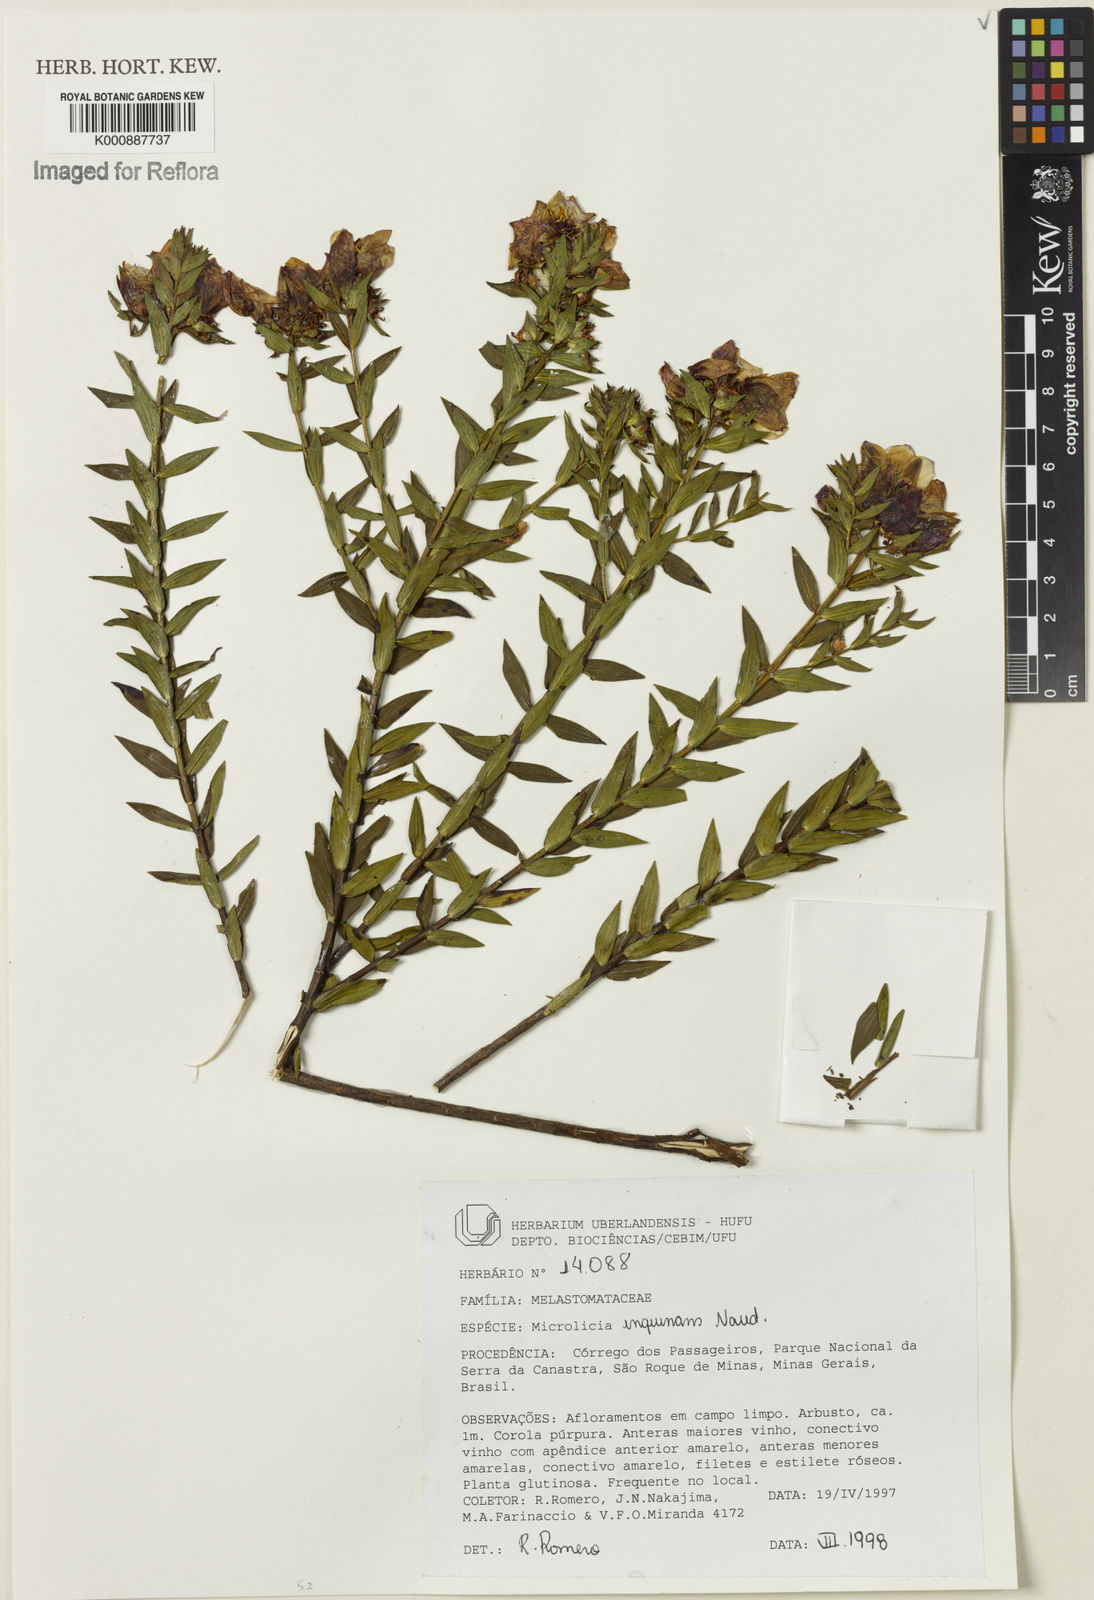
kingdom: Plantae
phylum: Tracheophyta
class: Magnoliopsida
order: Myrtales
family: Melastomataceae
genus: Microlicia
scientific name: Microlicia inquinans
